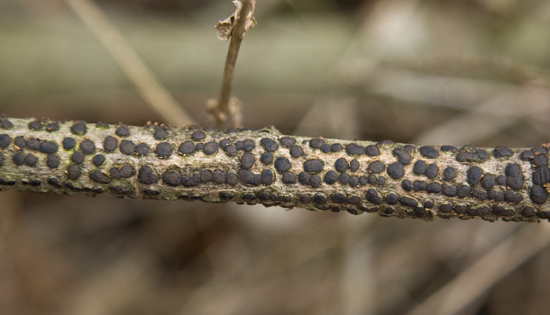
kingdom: Fungi
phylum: Ascomycota
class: Sordariomycetes
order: Xylariales
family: Diatrypaceae
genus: Diatrype
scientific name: Diatrype bullata
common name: pile-kulskorpe
